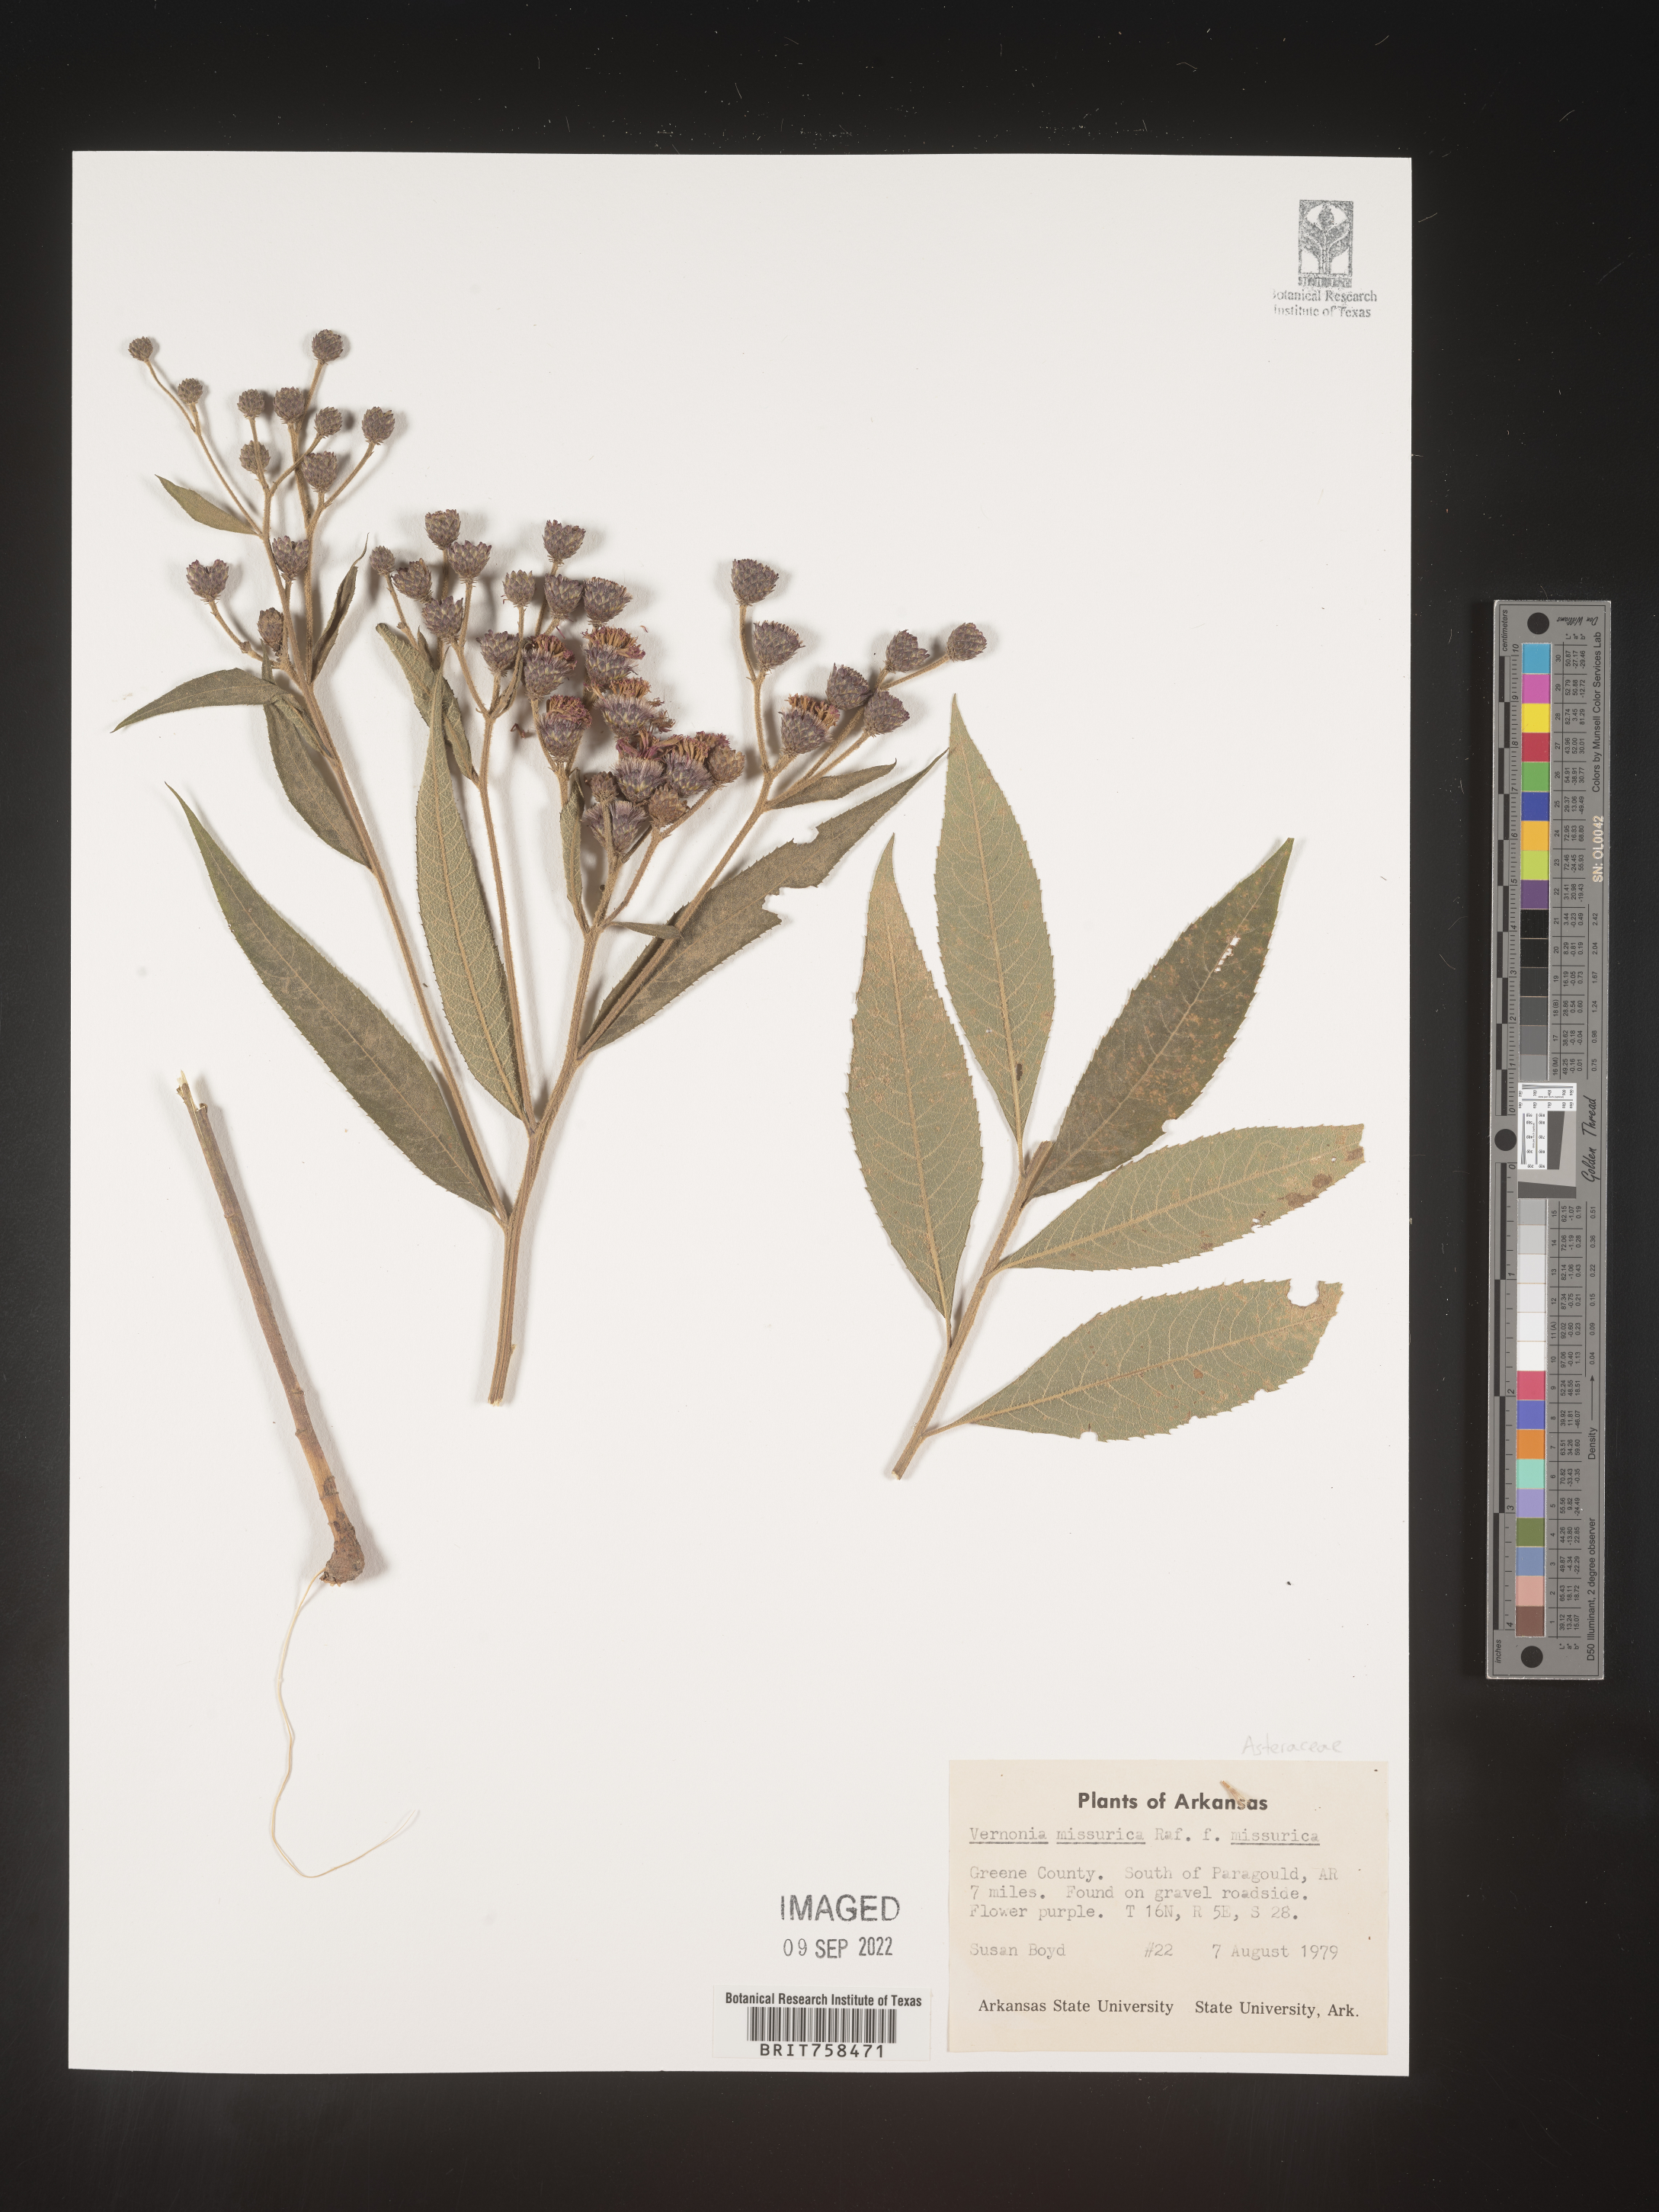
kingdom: Plantae
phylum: Tracheophyta
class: Magnoliopsida
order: Asterales
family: Asteraceae
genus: Vernonia
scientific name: Vernonia missurica
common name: Missouri ironweed
